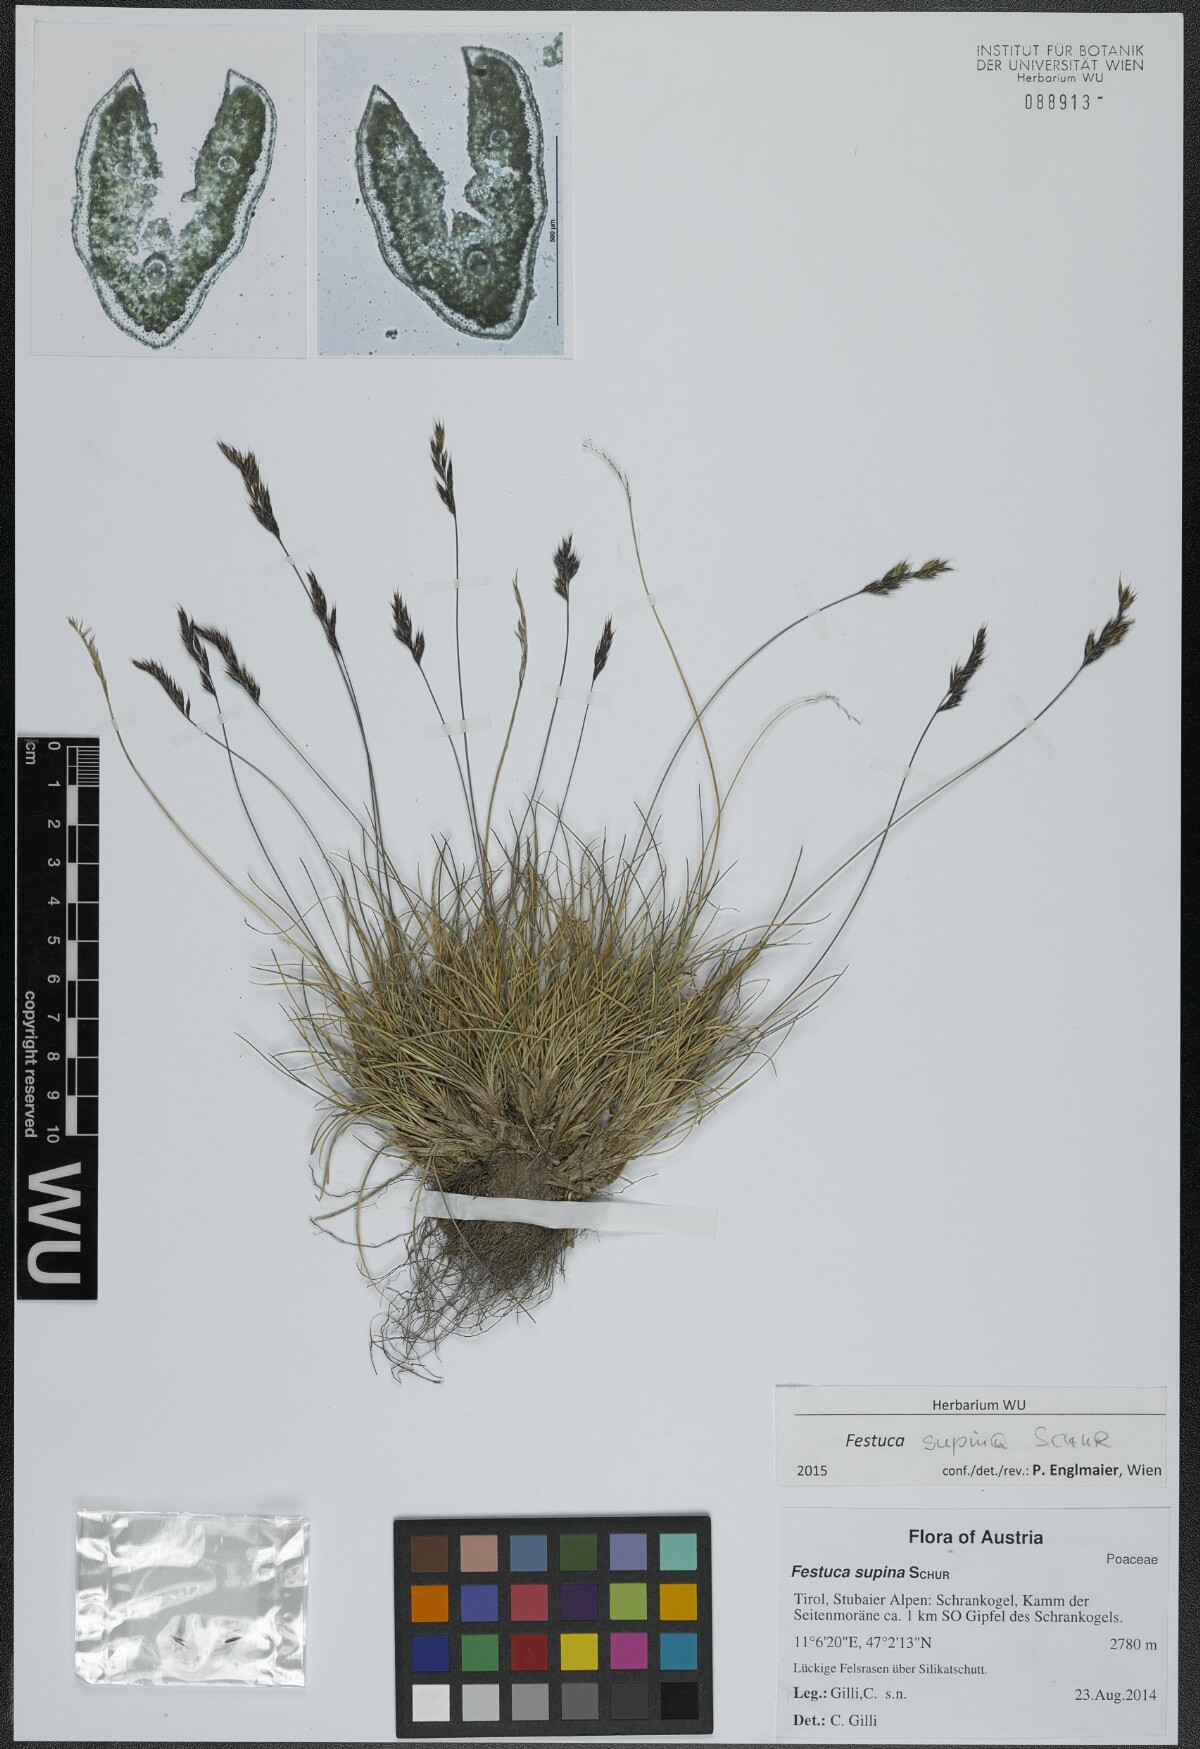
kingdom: Plantae
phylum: Tracheophyta
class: Liliopsida
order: Poales
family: Poaceae
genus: Festuca
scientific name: Festuca airoides
